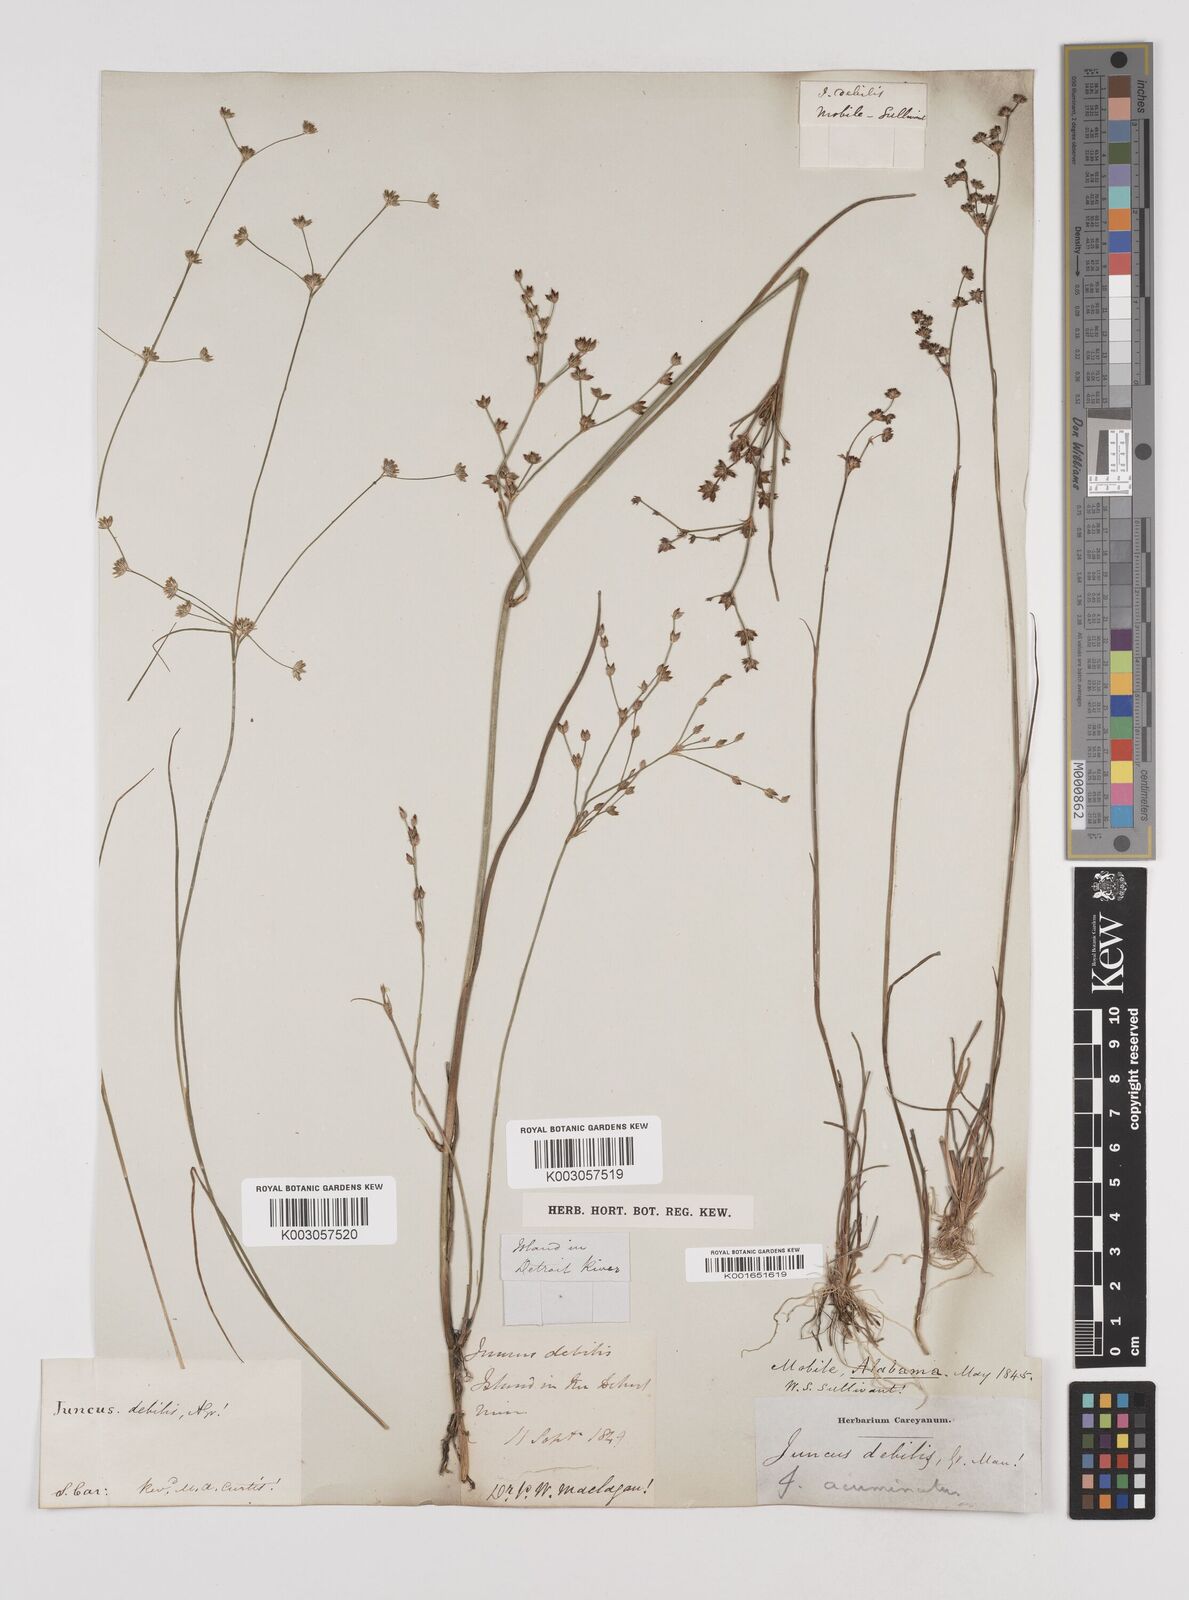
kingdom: Plantae
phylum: Tracheophyta
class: Liliopsida
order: Poales
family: Juncaceae
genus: Juncus
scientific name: Juncus debilis
